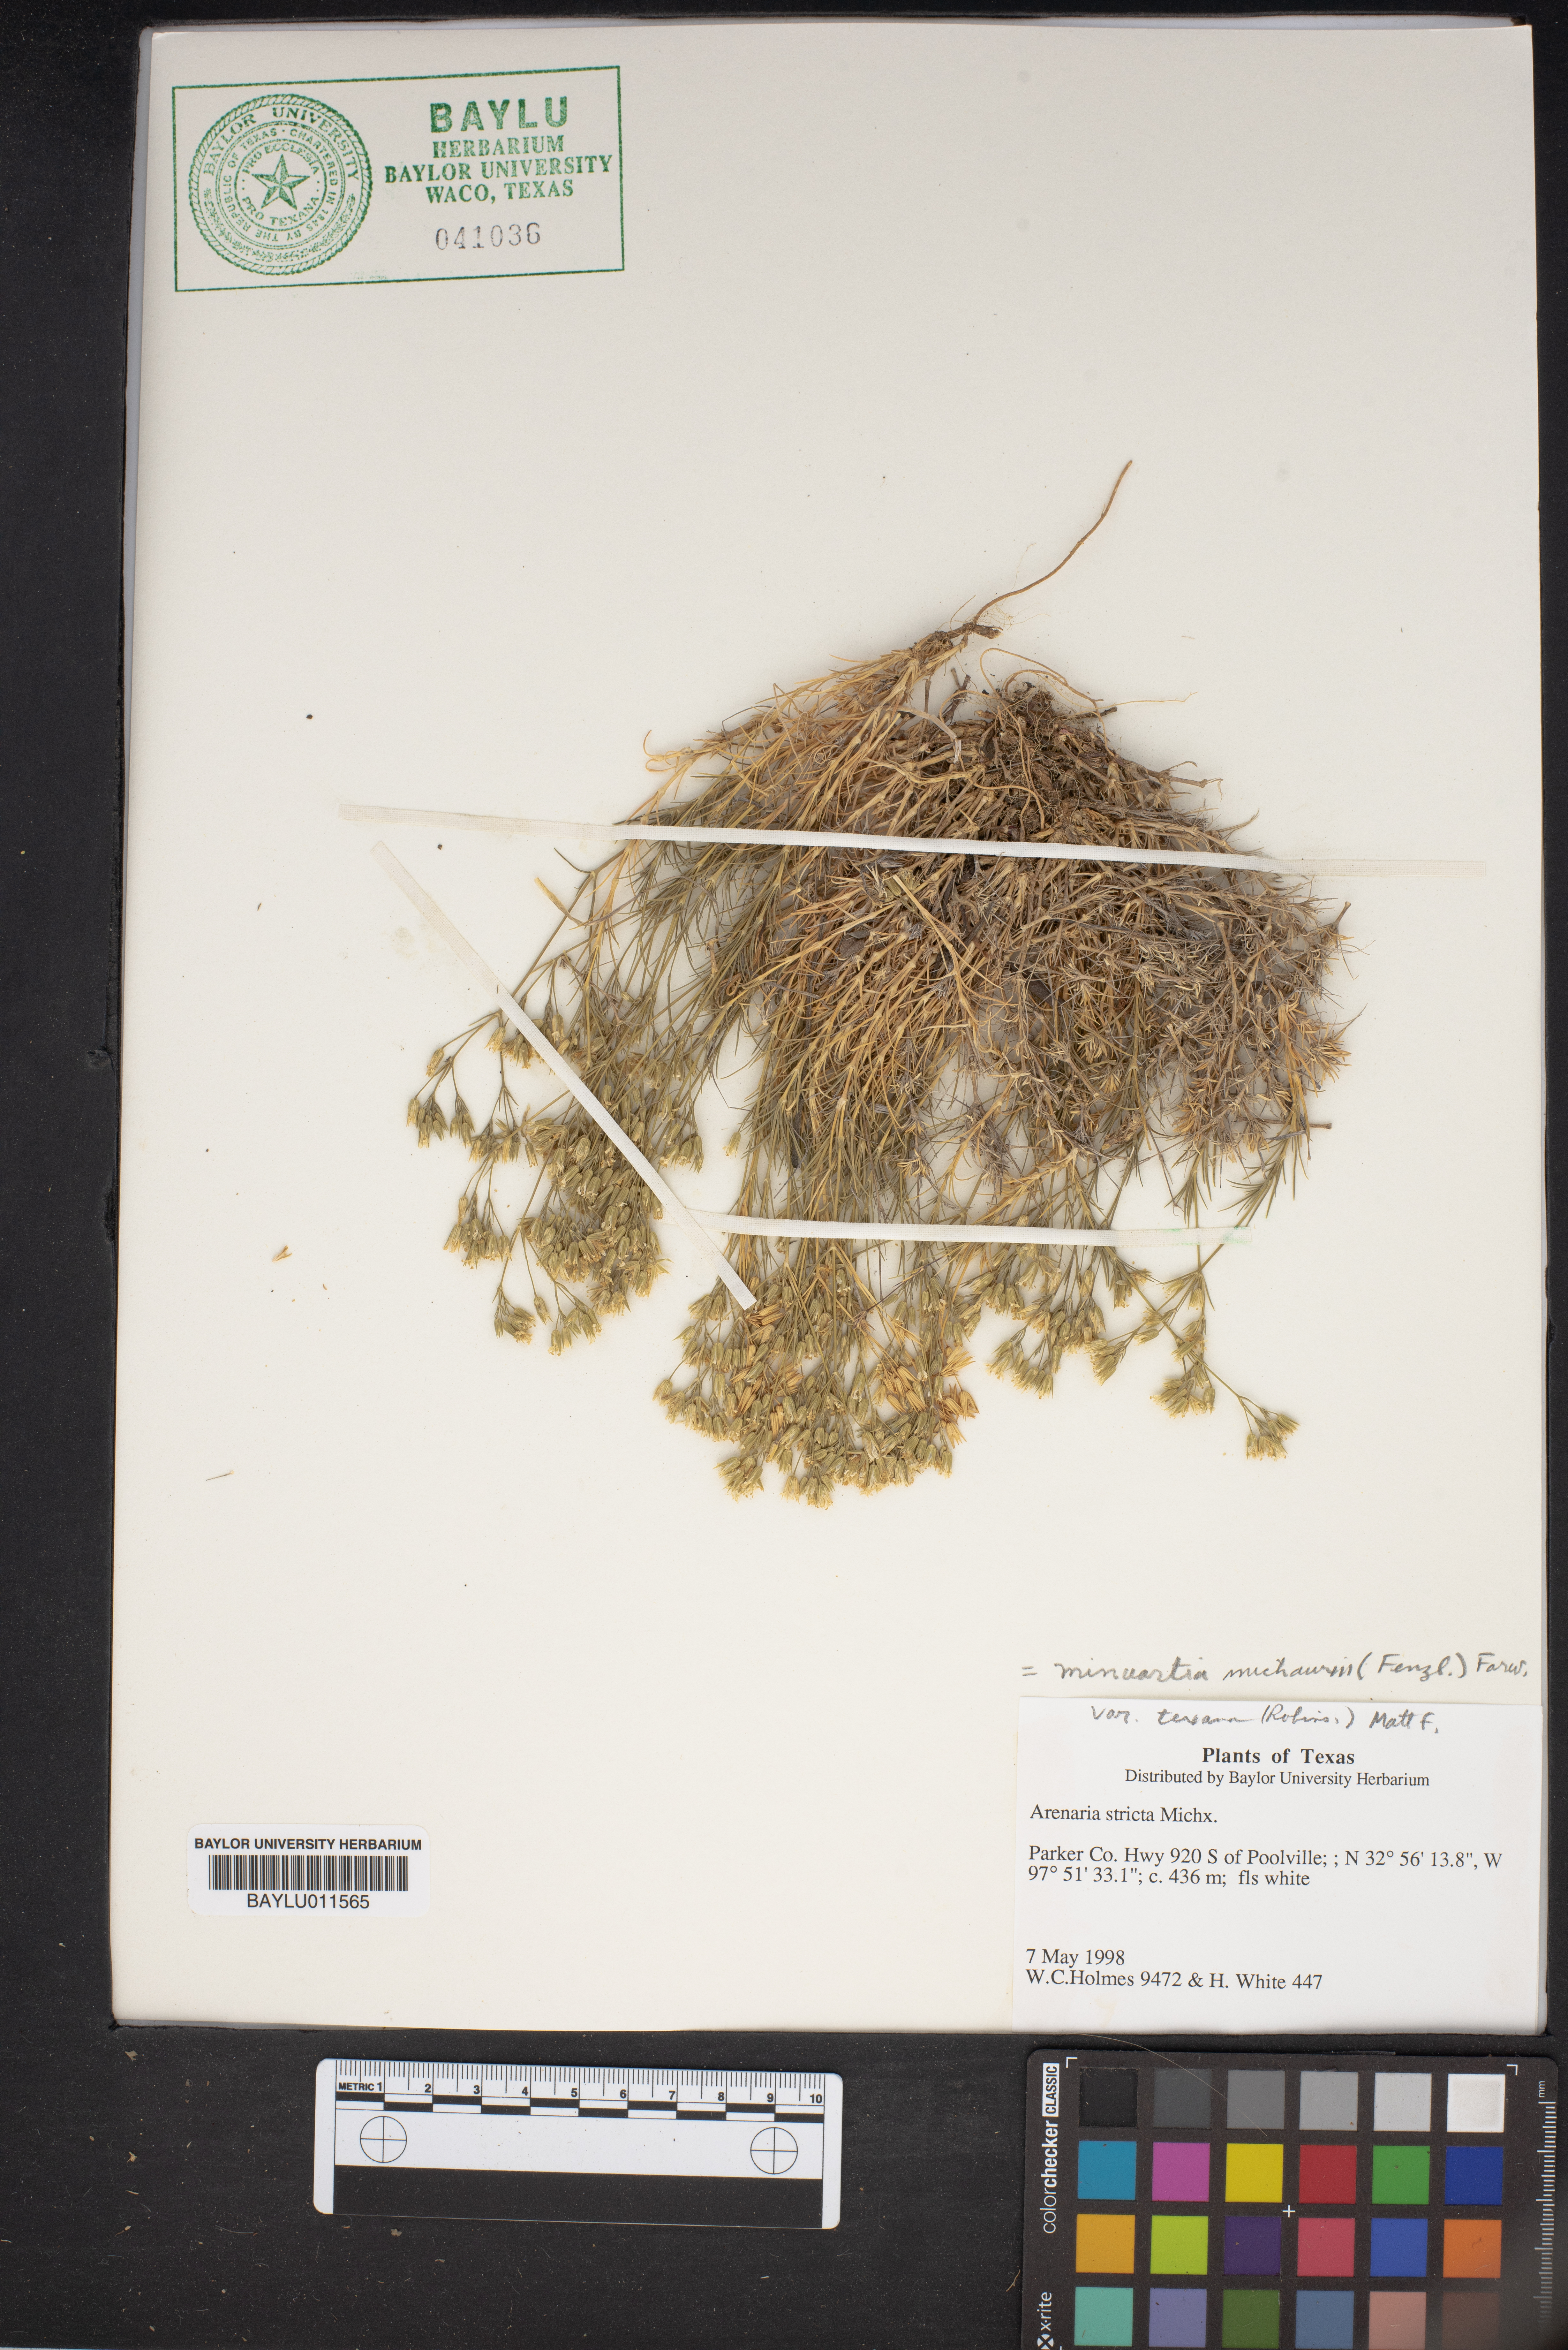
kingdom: Plantae
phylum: Tracheophyta
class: Magnoliopsida
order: Caryophyllales
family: Caryophyllaceae
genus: Sabulina
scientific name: Sabulina michauxii
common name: Michaux's stitchwort
